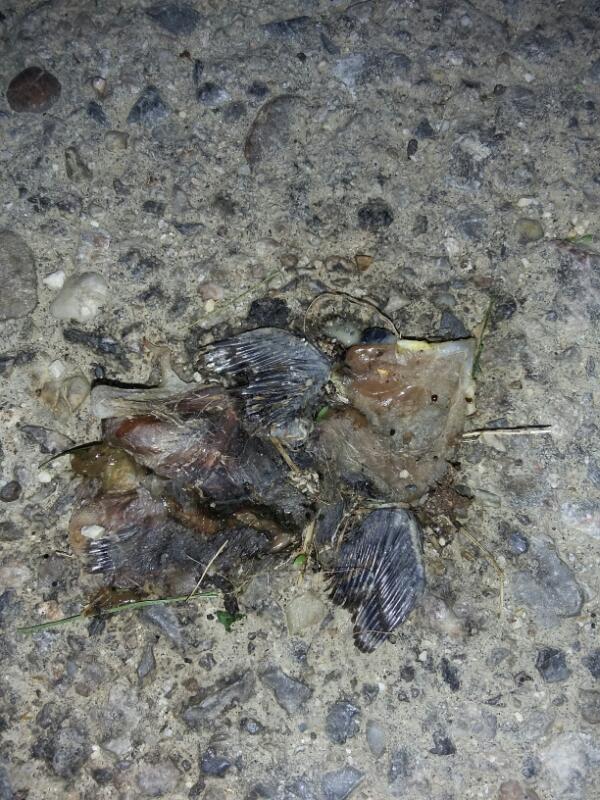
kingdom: Animalia
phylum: Chordata
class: Aves
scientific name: Aves
